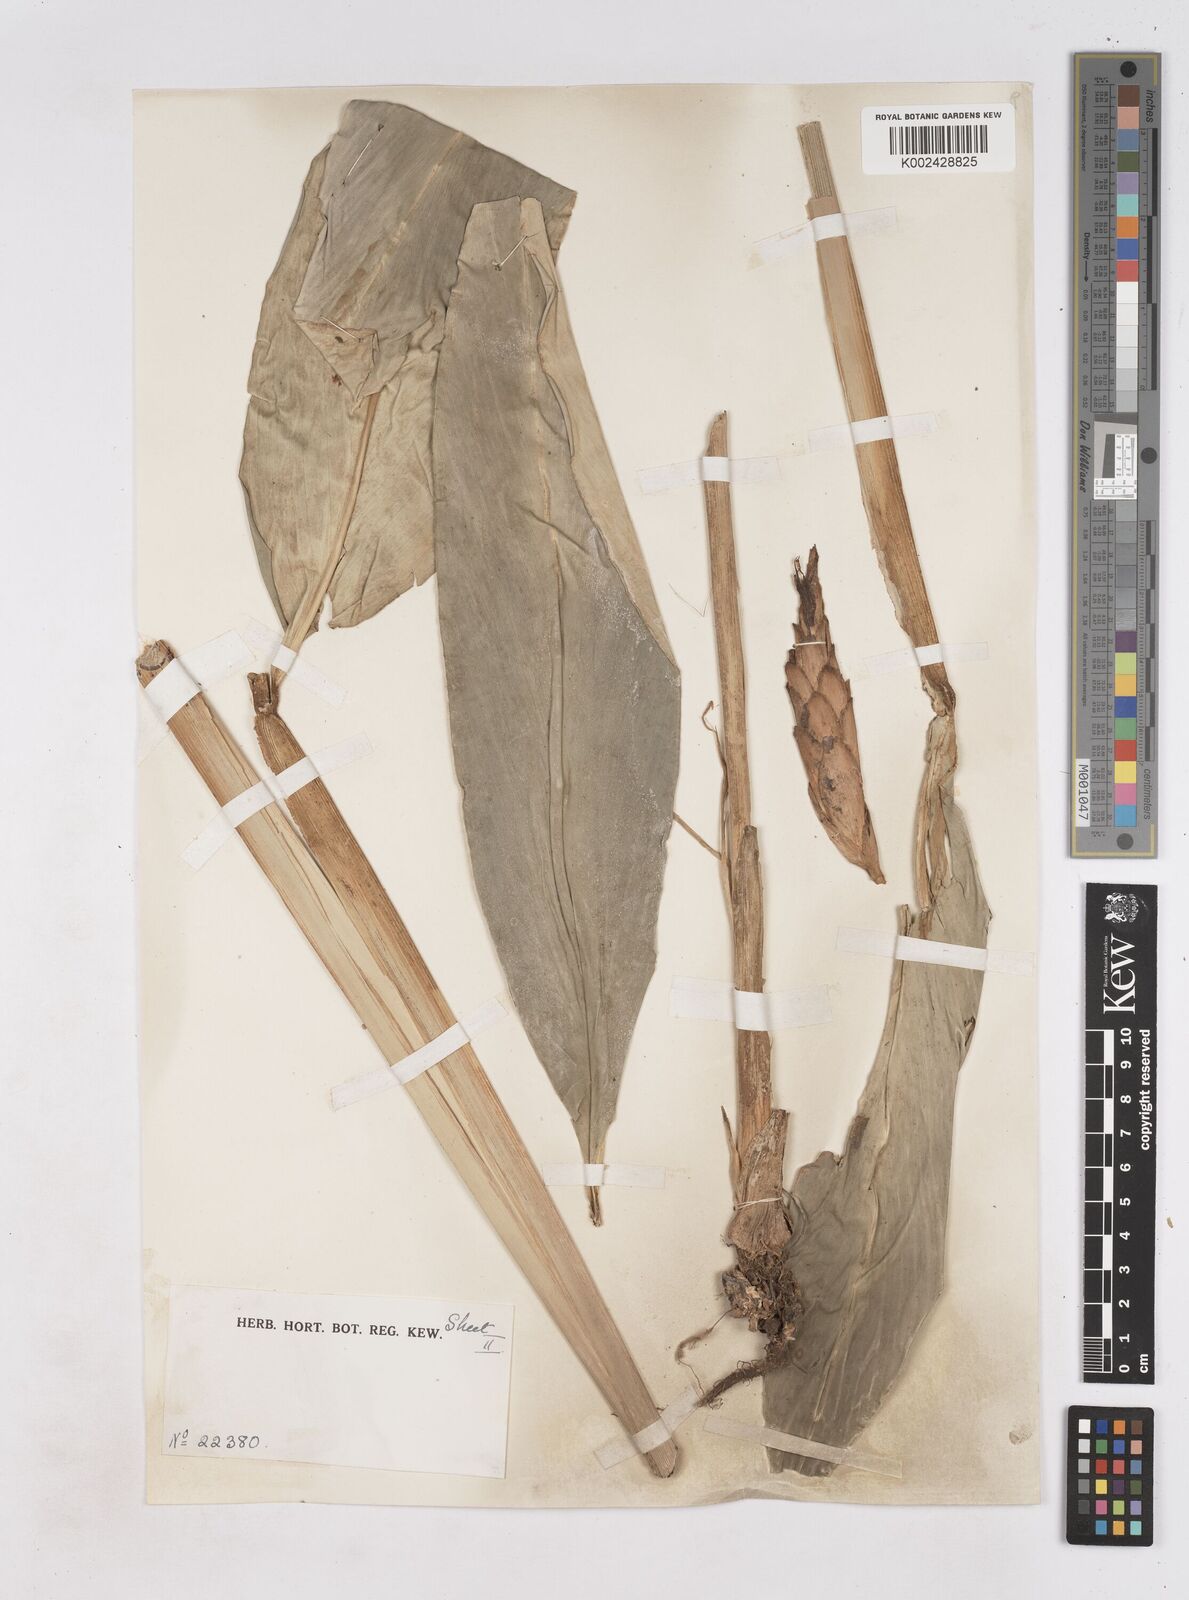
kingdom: Plantae
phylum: Tracheophyta
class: Liliopsida
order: Zingiberales
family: Zingiberaceae
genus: Zingiber
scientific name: Zingiber puberulum
